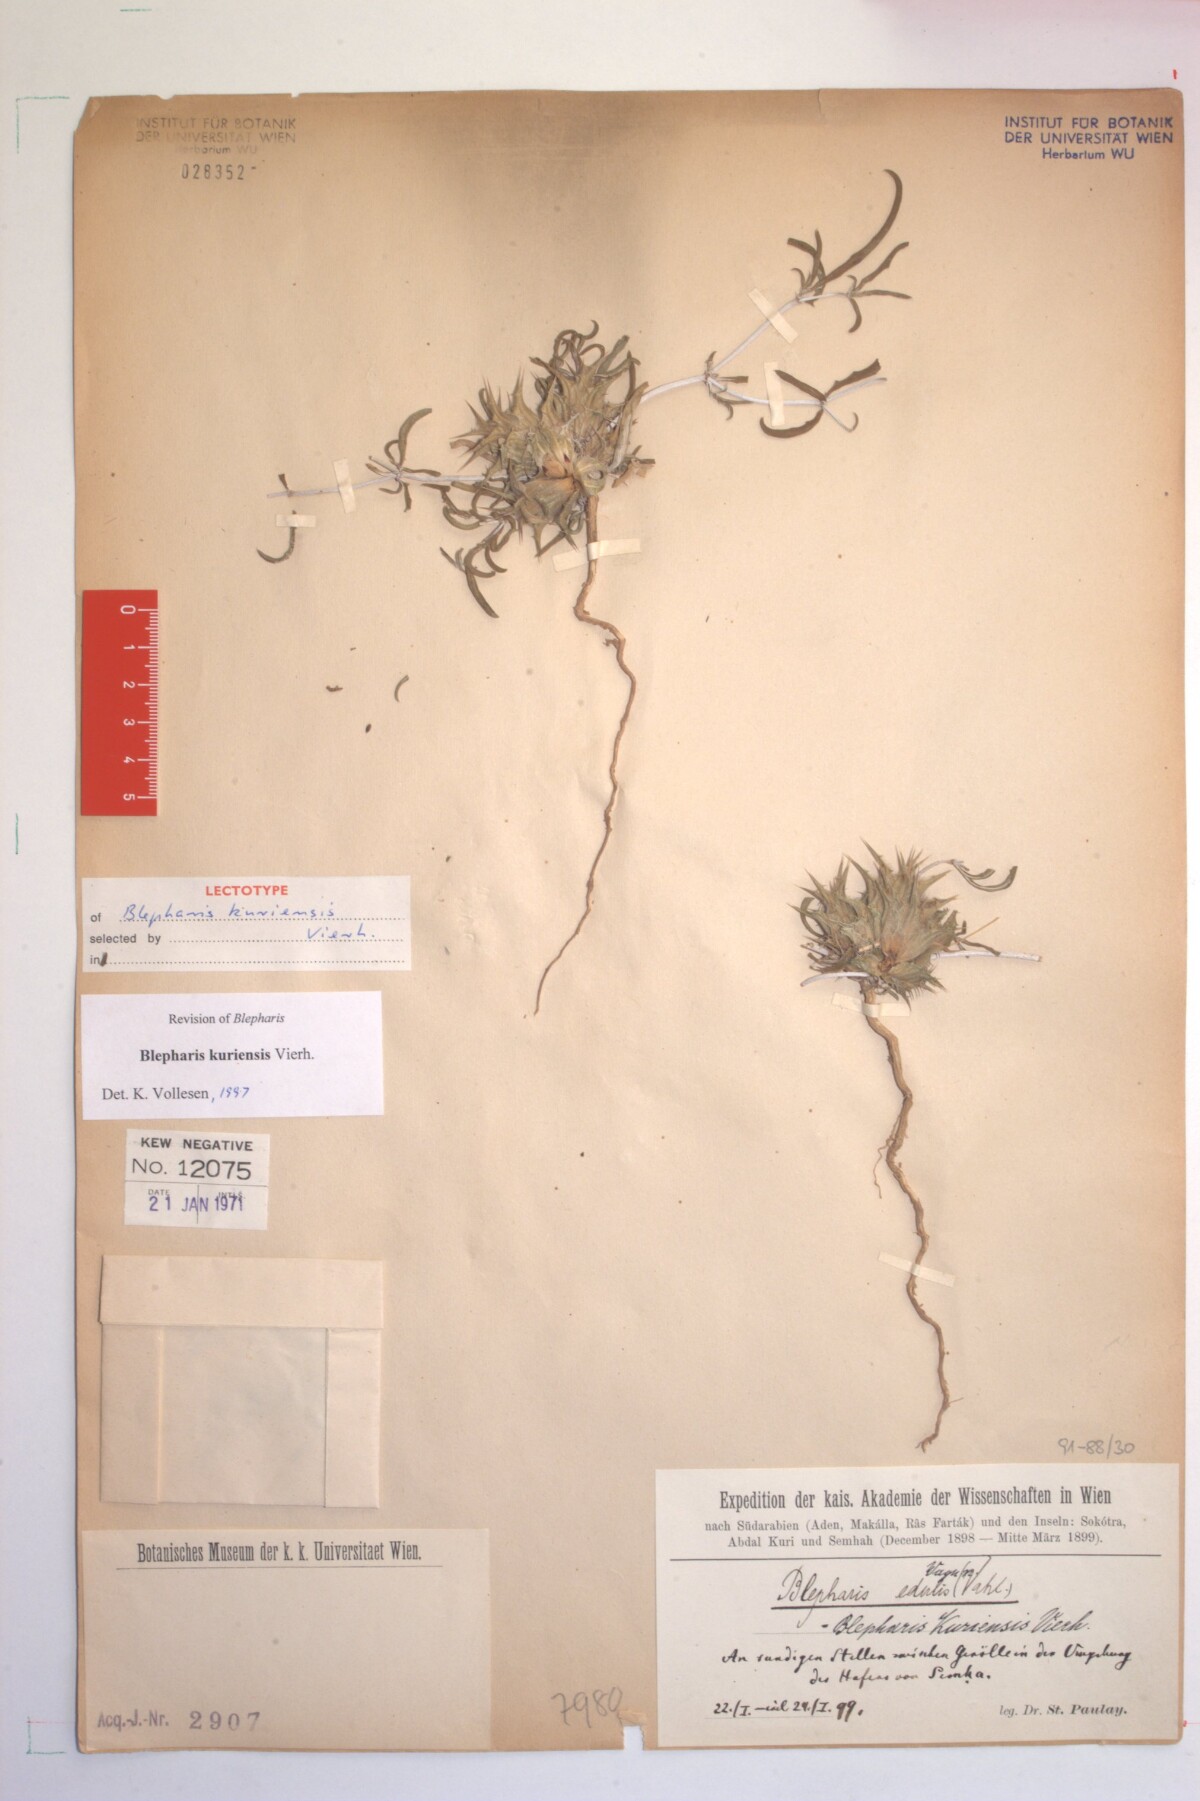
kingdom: Plantae
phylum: Tracheophyta
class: Magnoliopsida
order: Lamiales
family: Acanthaceae
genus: Blepharis
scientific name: Blepharis kuriensis
